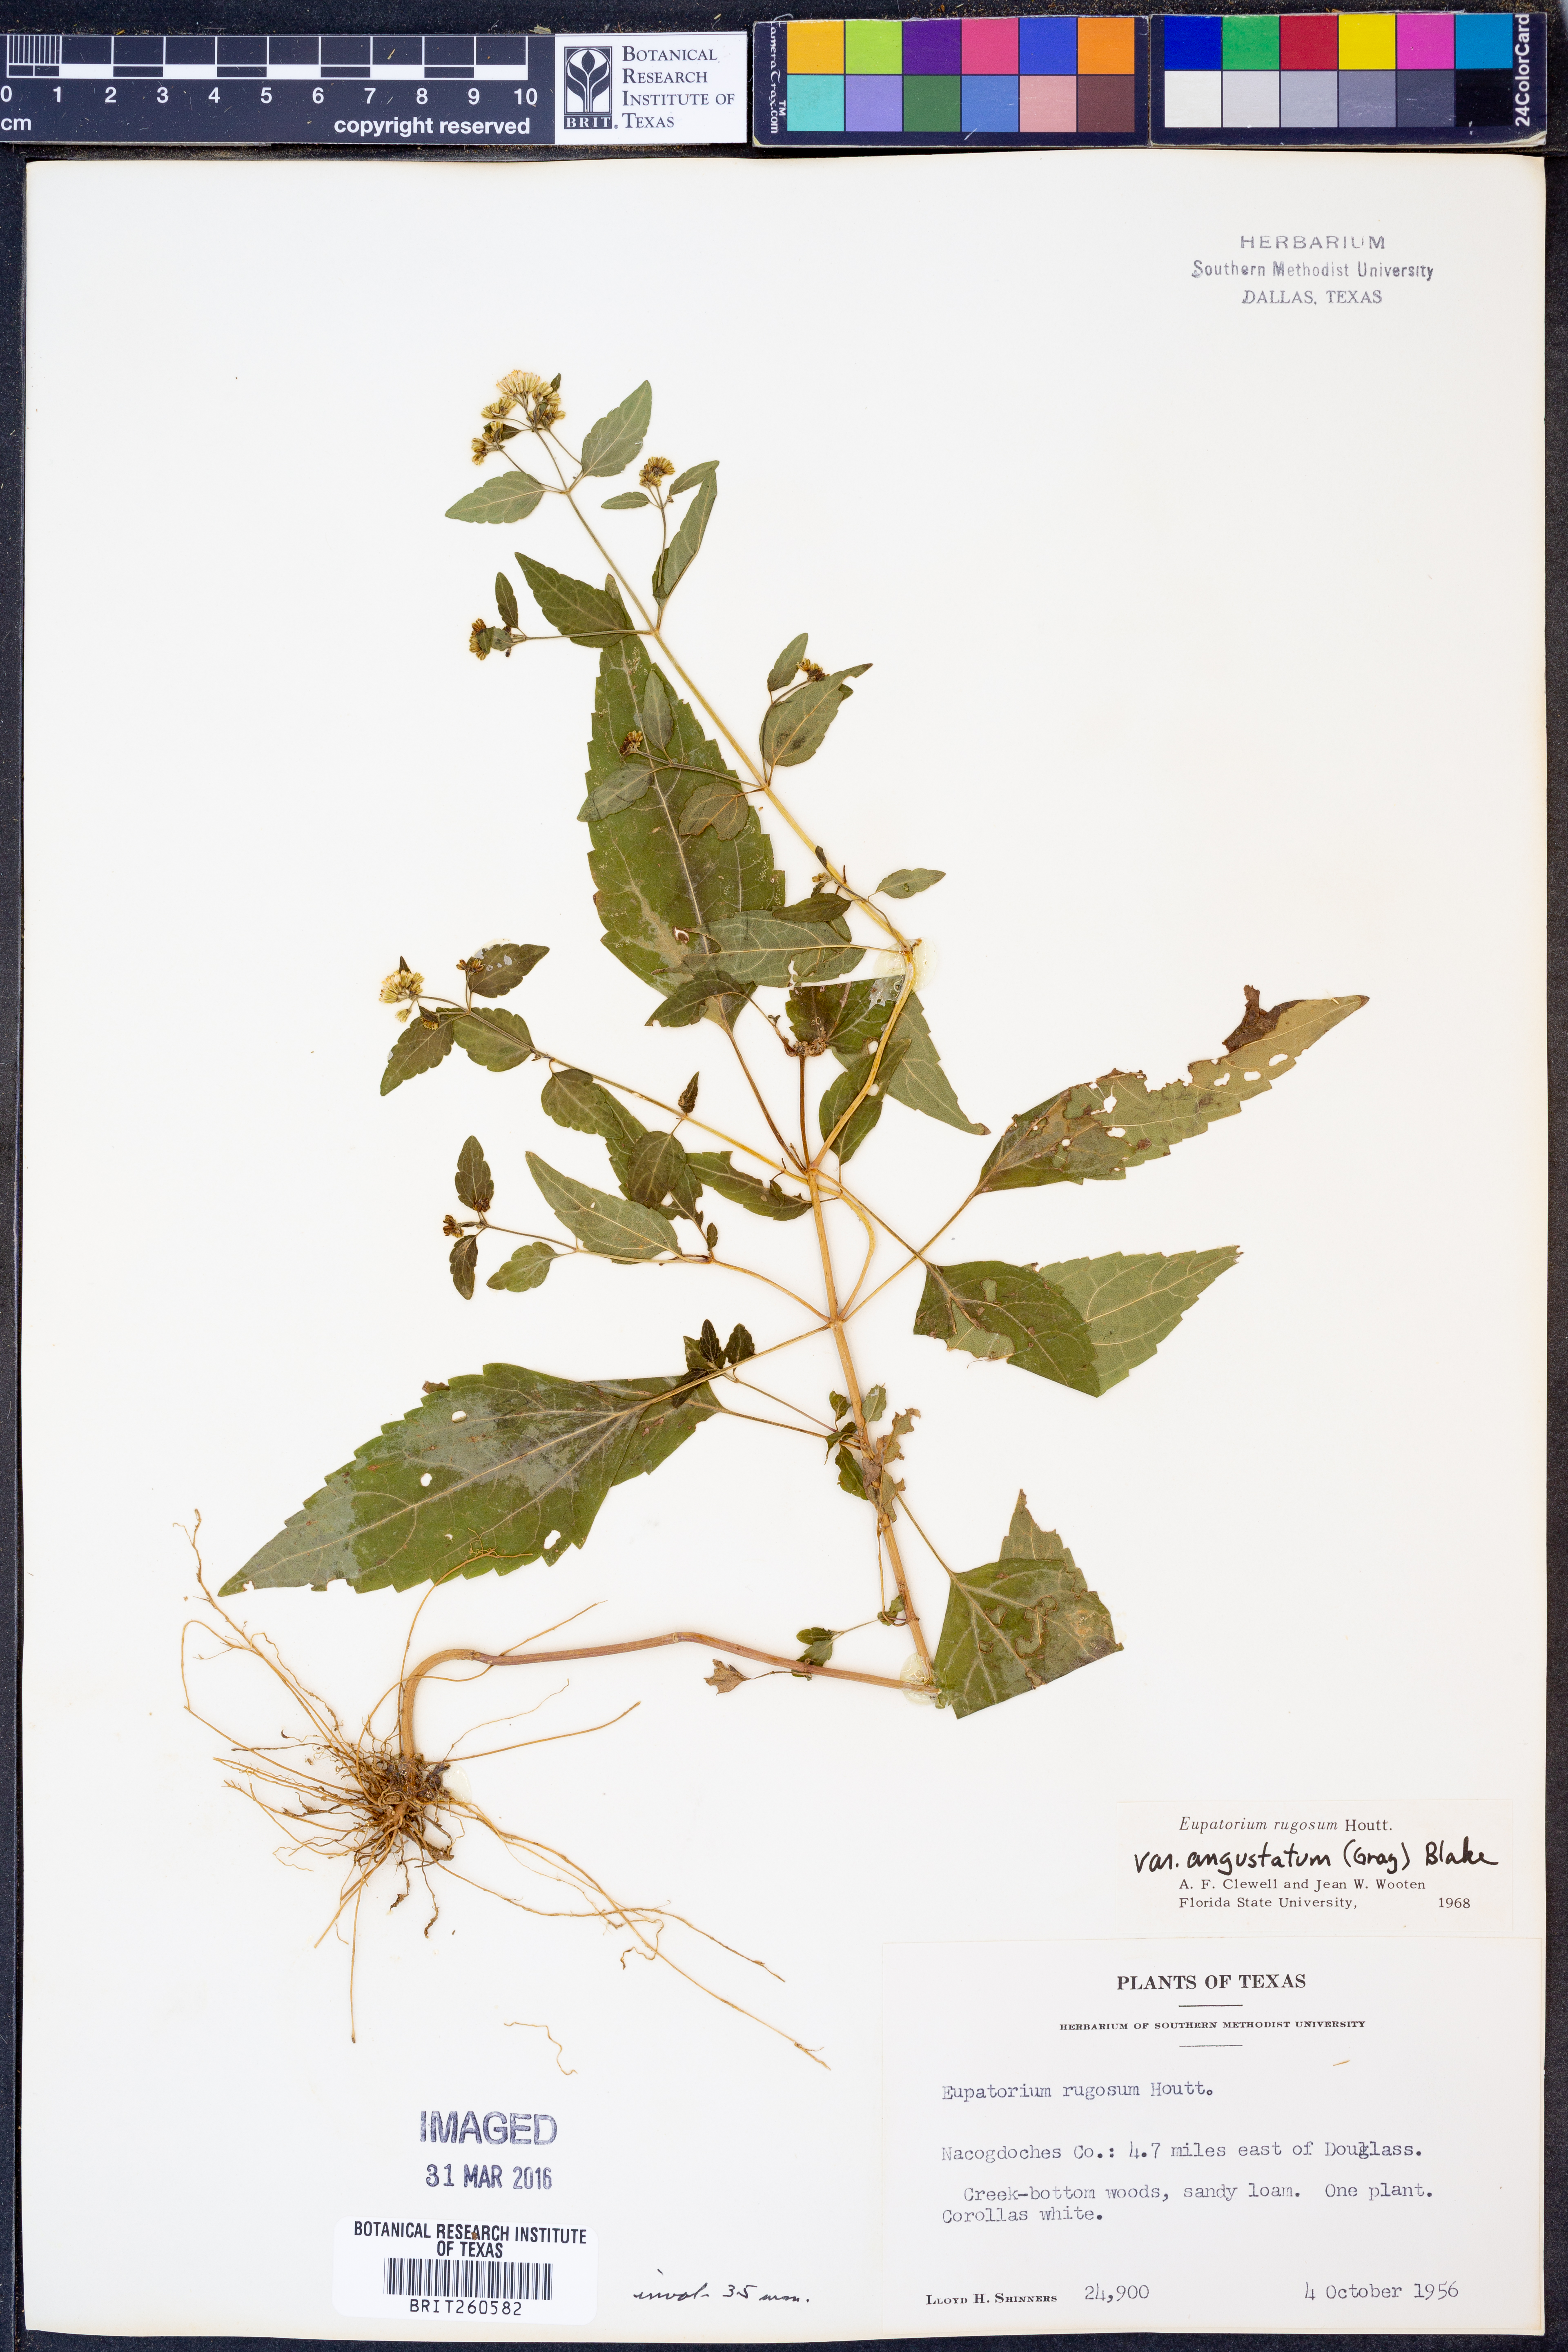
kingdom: Plantae
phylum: Tracheophyta
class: Magnoliopsida
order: Asterales
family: Asteraceae
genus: Ageratina
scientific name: Ageratina altissima
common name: White snakeroot
